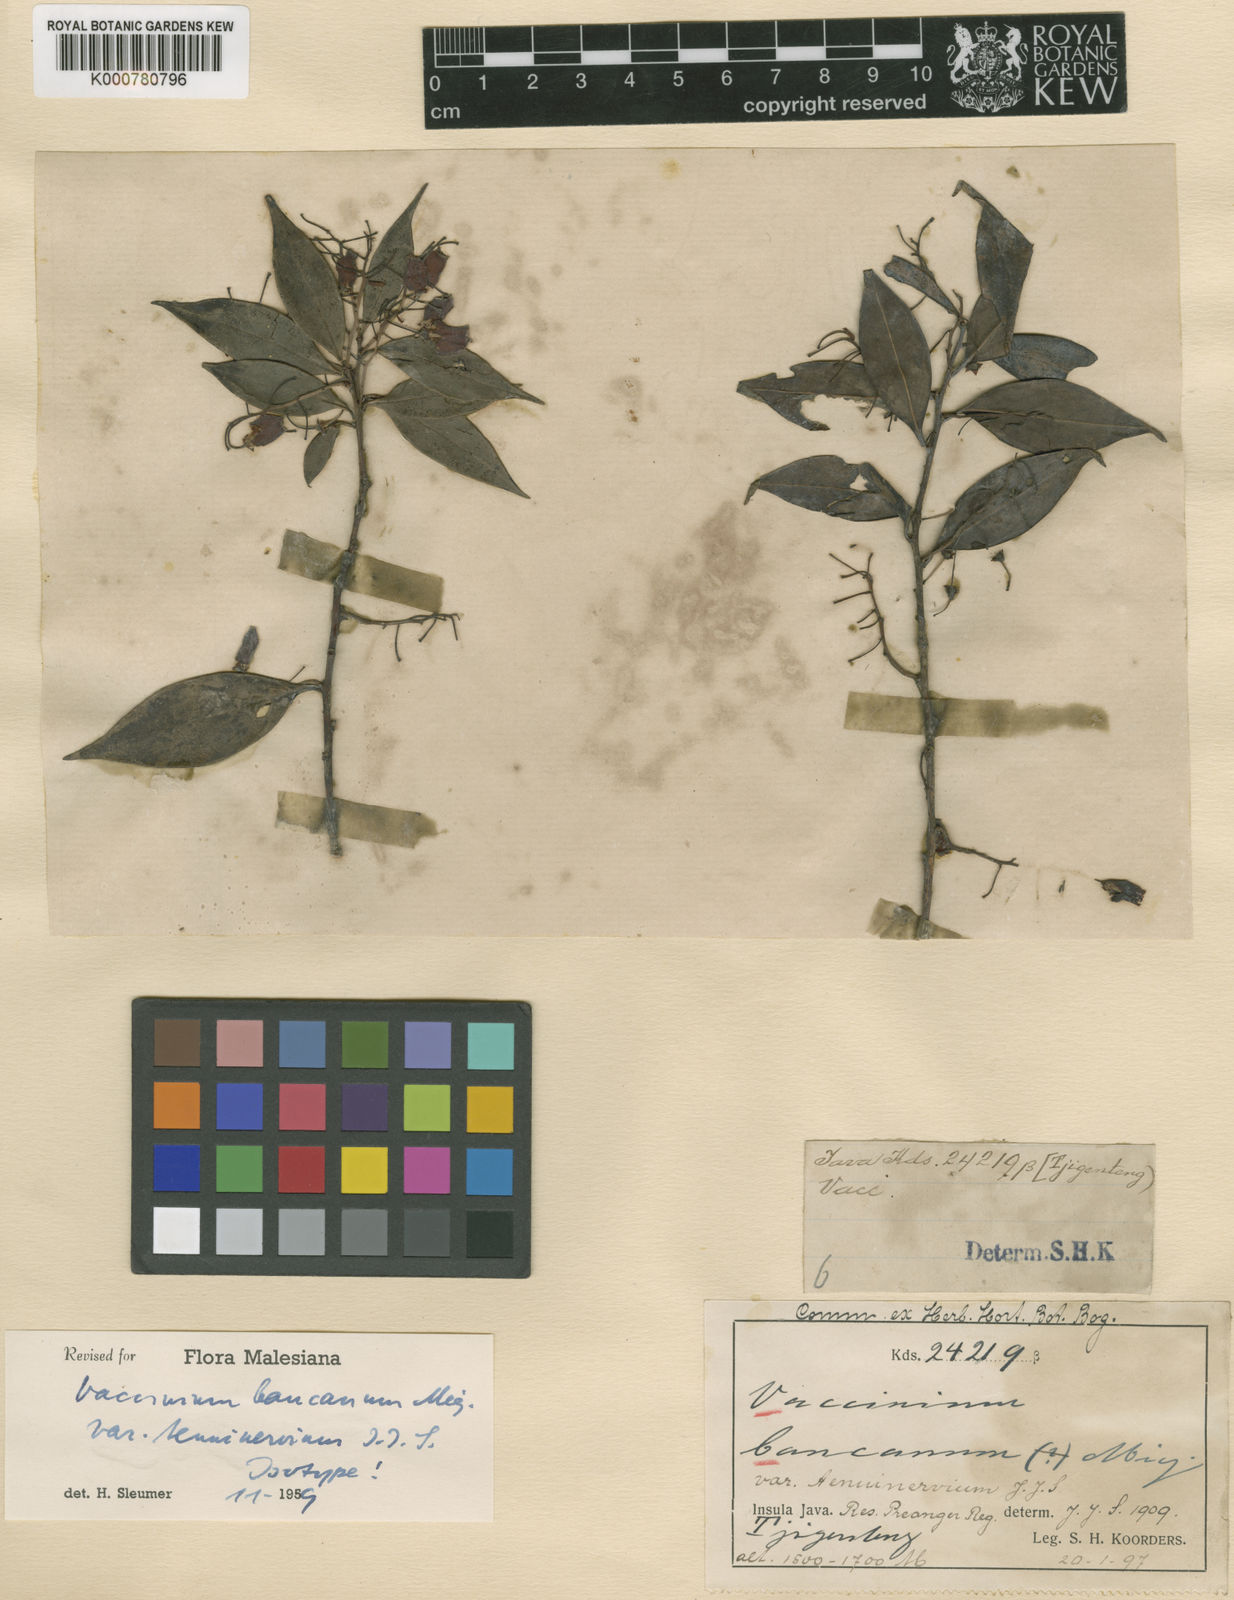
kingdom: Plantae
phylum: Tracheophyta
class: Magnoliopsida
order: Ericales
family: Ericaceae
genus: Vaccinium
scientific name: Vaccinium bancanum
